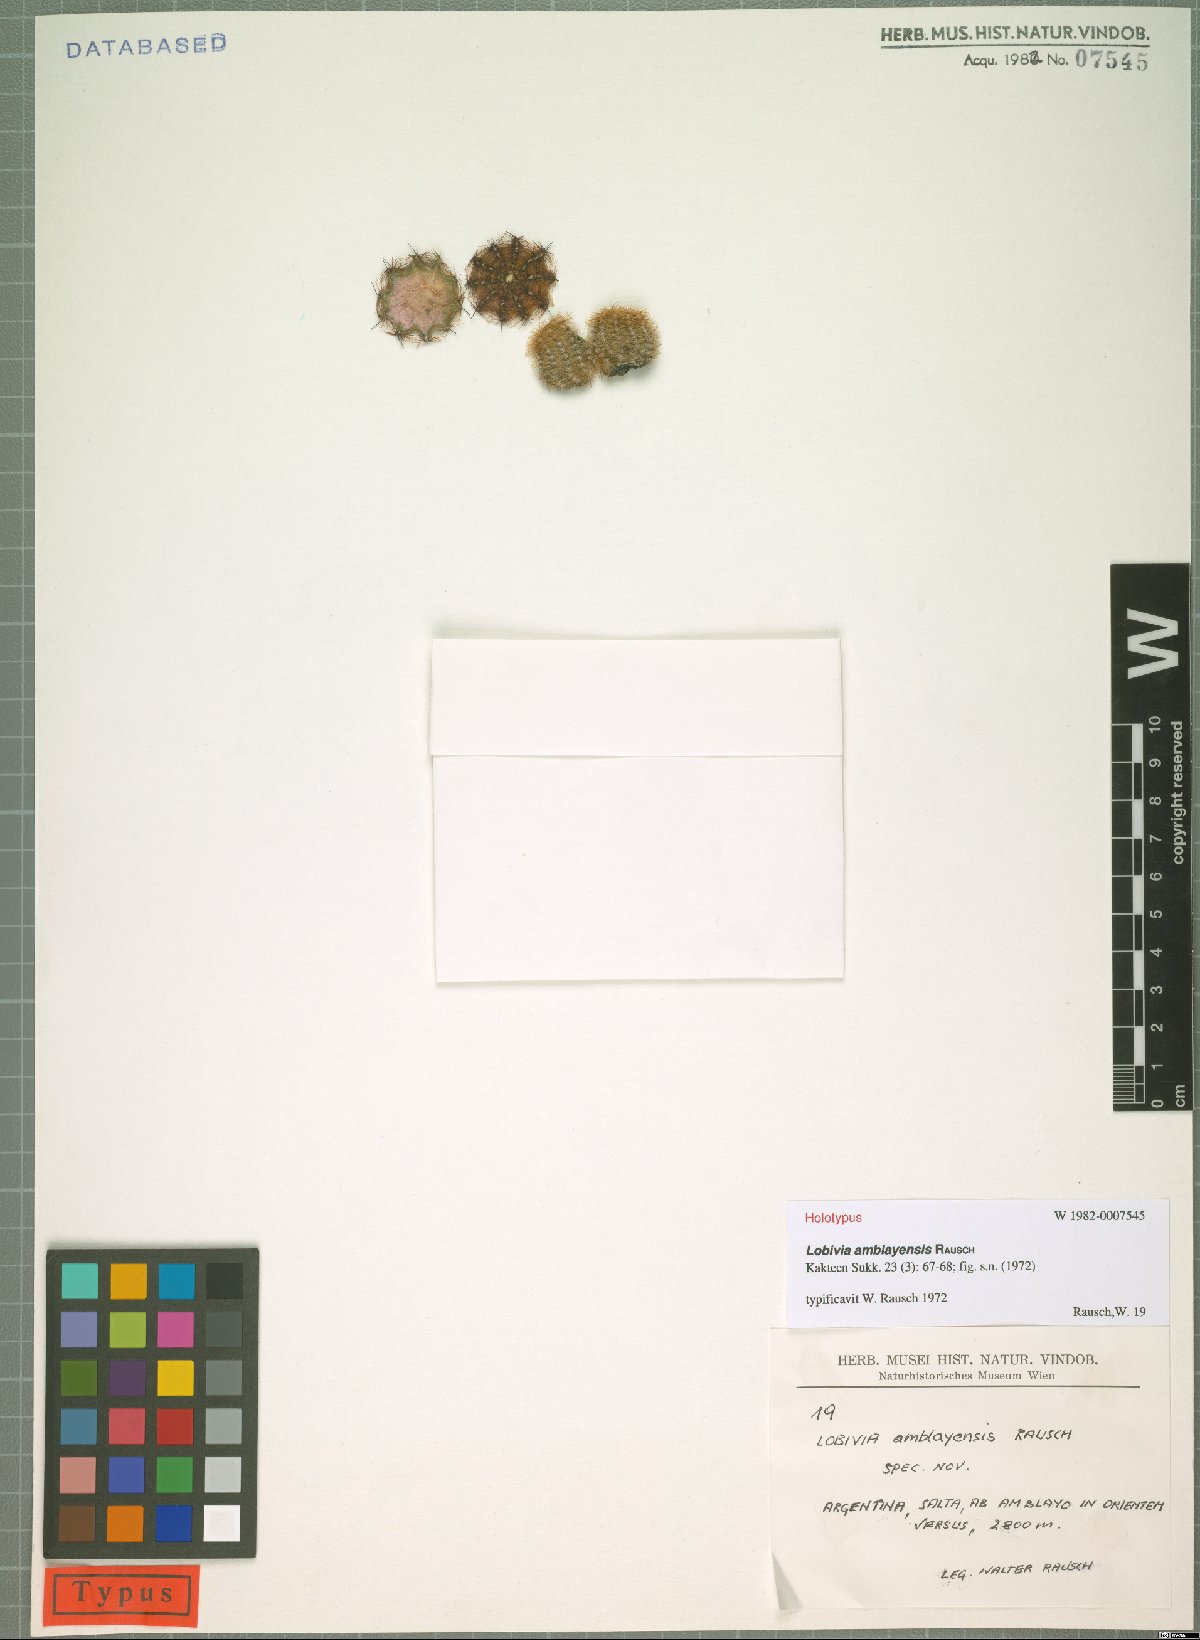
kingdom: Plantae
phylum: Tracheophyta
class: Magnoliopsida
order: Caryophyllales
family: Cactaceae
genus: Echinopsis
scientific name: Echinopsis haematantha
